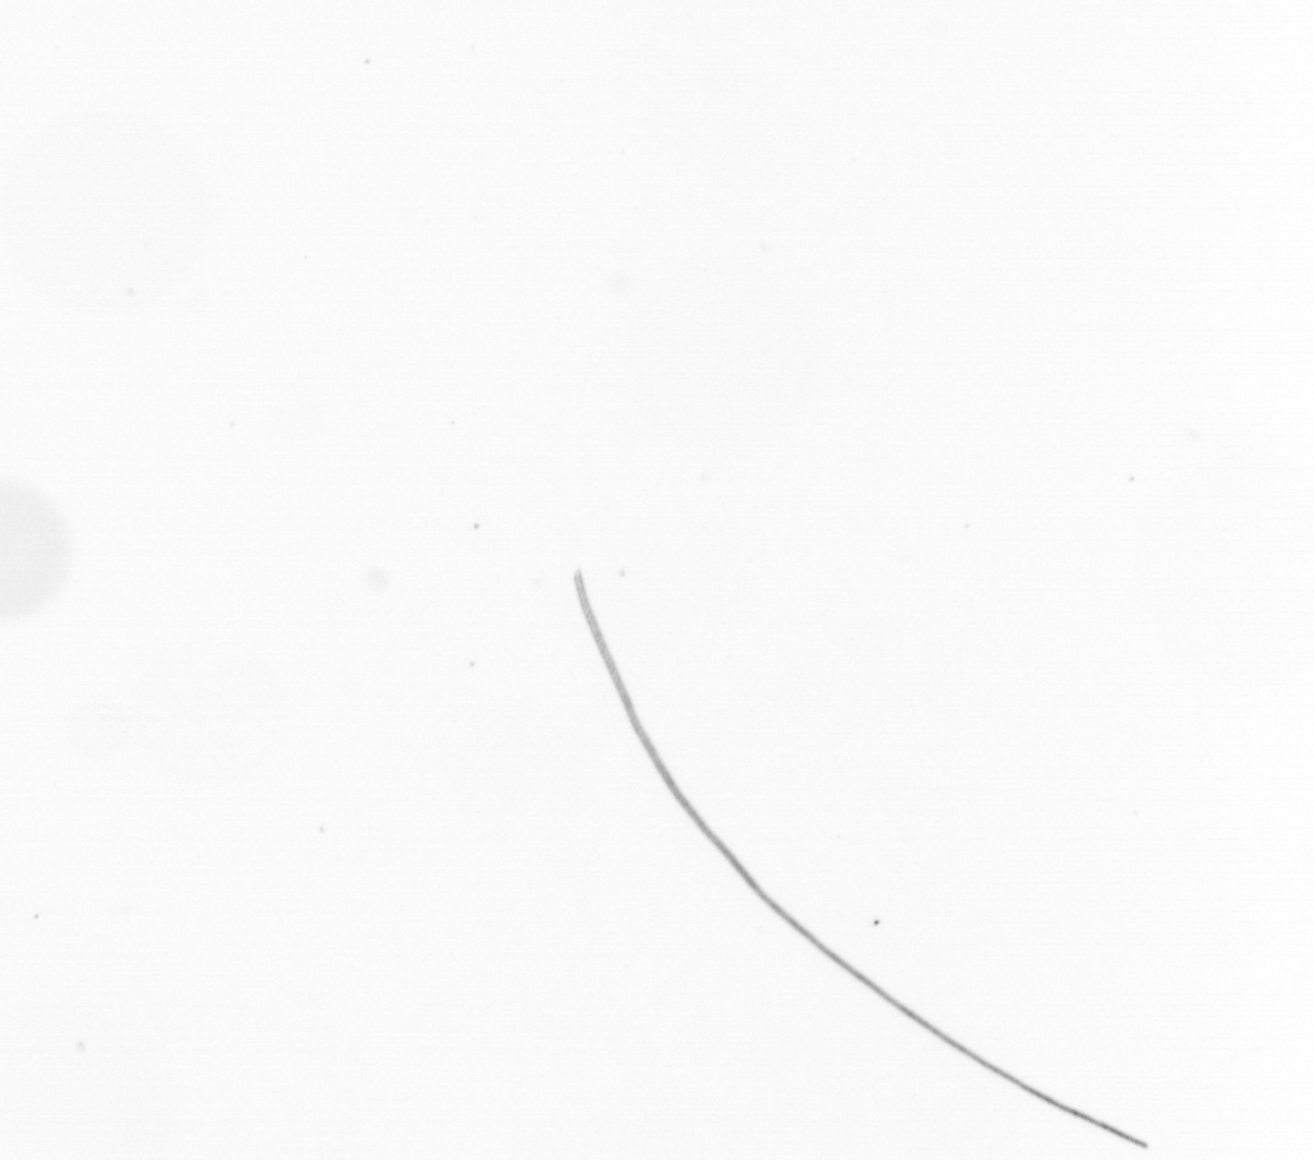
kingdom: Chromista
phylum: Ochrophyta
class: Bacillariophyceae
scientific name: Bacillariophyceae
